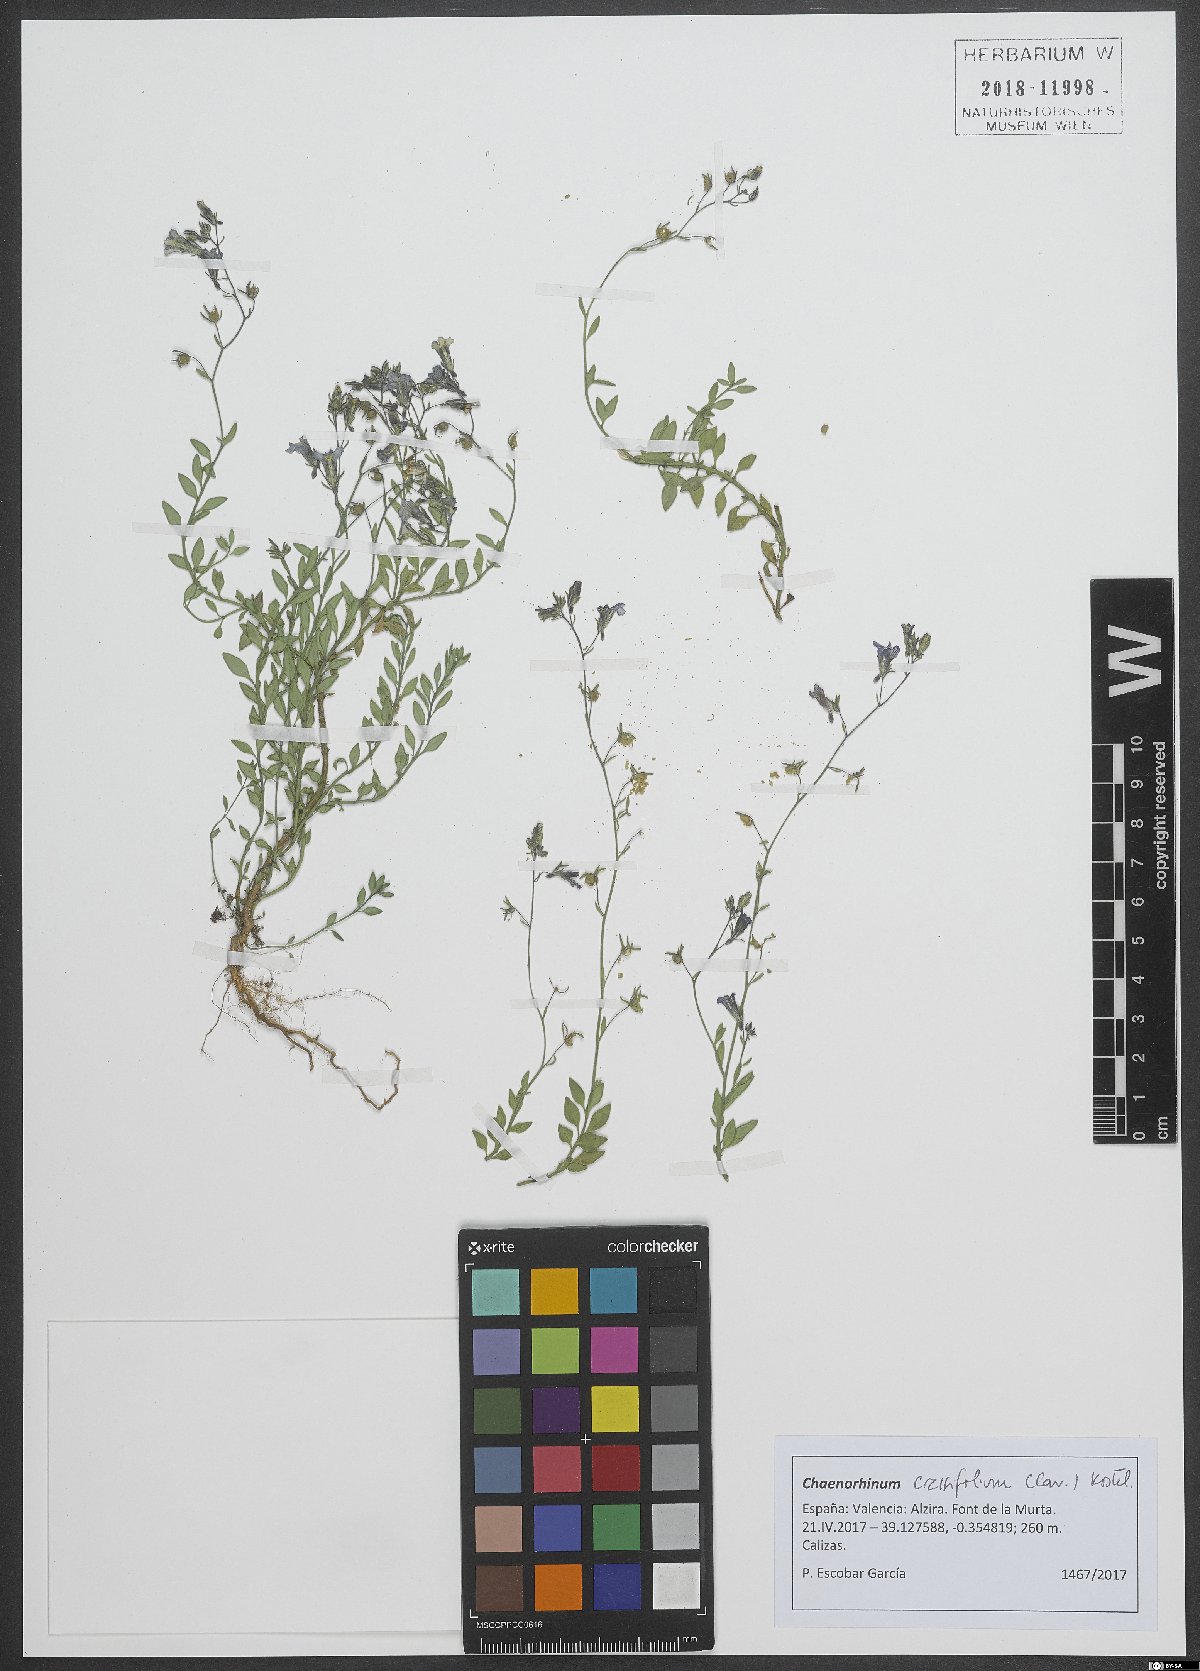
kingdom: Plantae
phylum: Tracheophyta
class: Magnoliopsida
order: Lamiales
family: Plantaginaceae
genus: Chaenorhinum
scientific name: Chaenorhinum crassifolium
